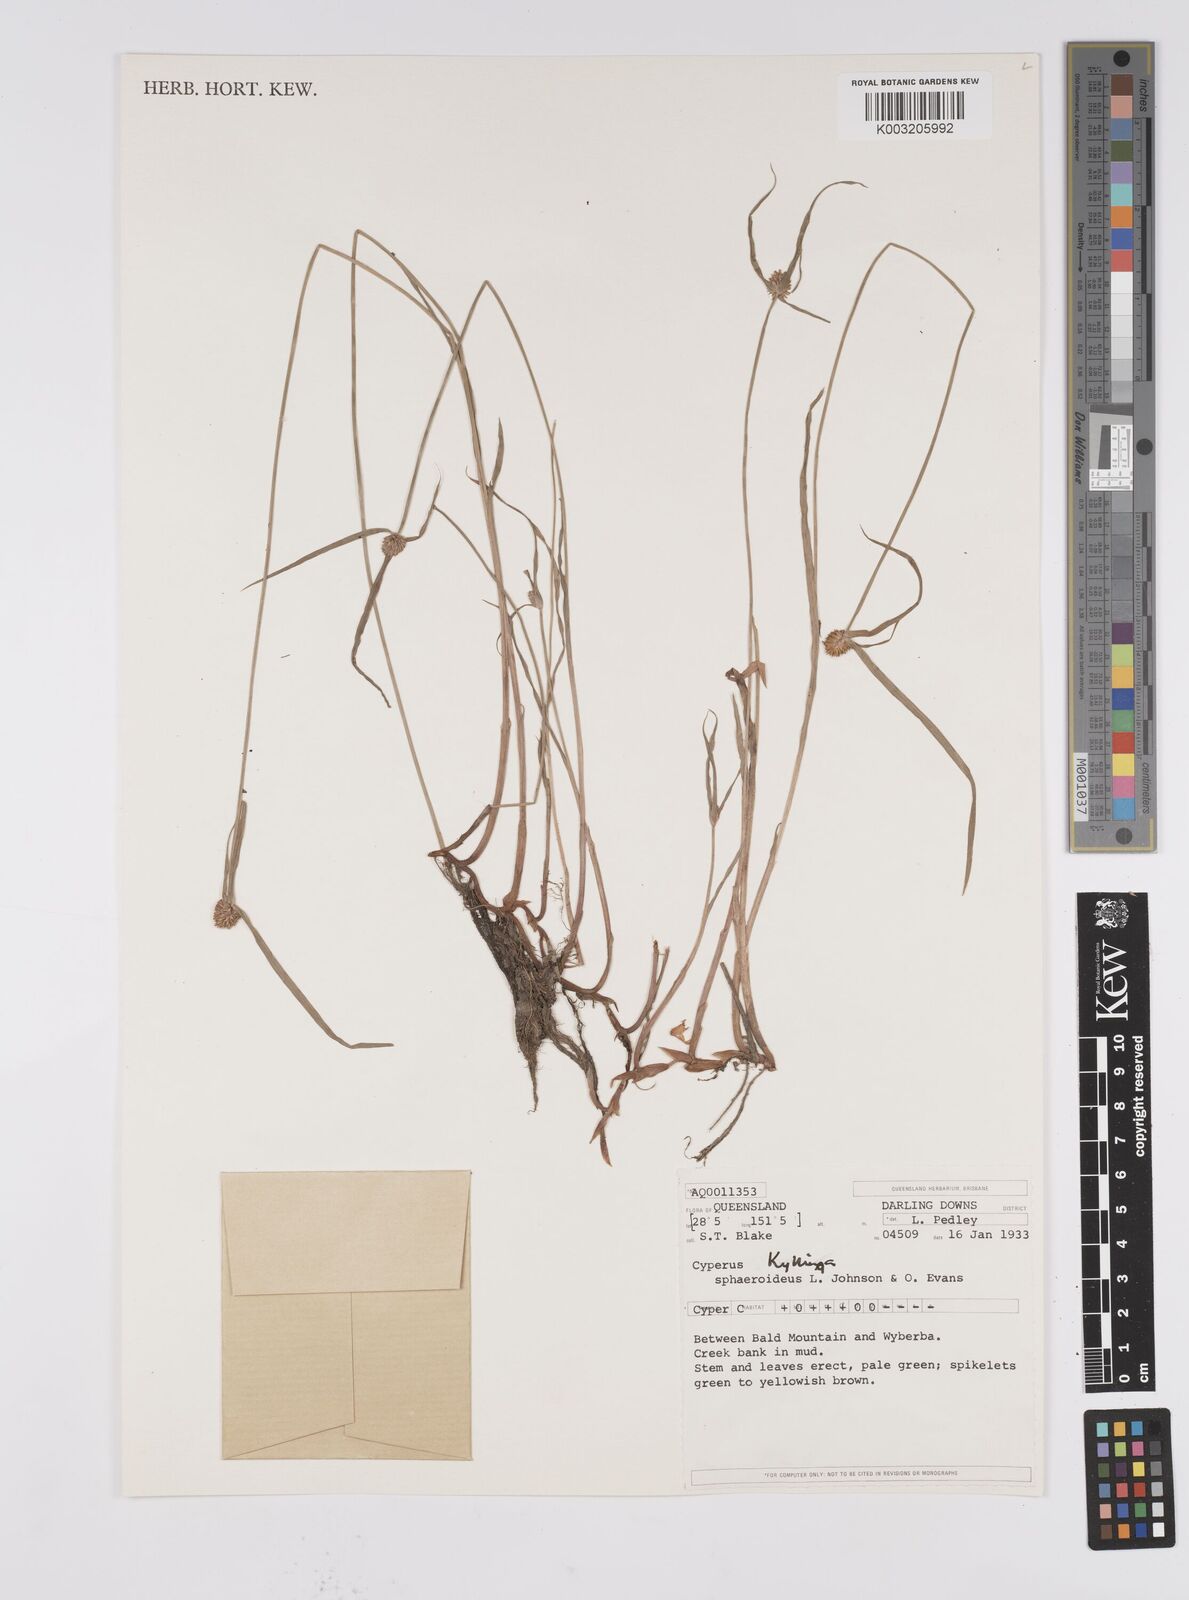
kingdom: Plantae
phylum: Tracheophyta
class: Liliopsida
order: Poales
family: Cyperaceae
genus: Cyperus
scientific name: Cyperus brevifolius
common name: Globe kyllinga
